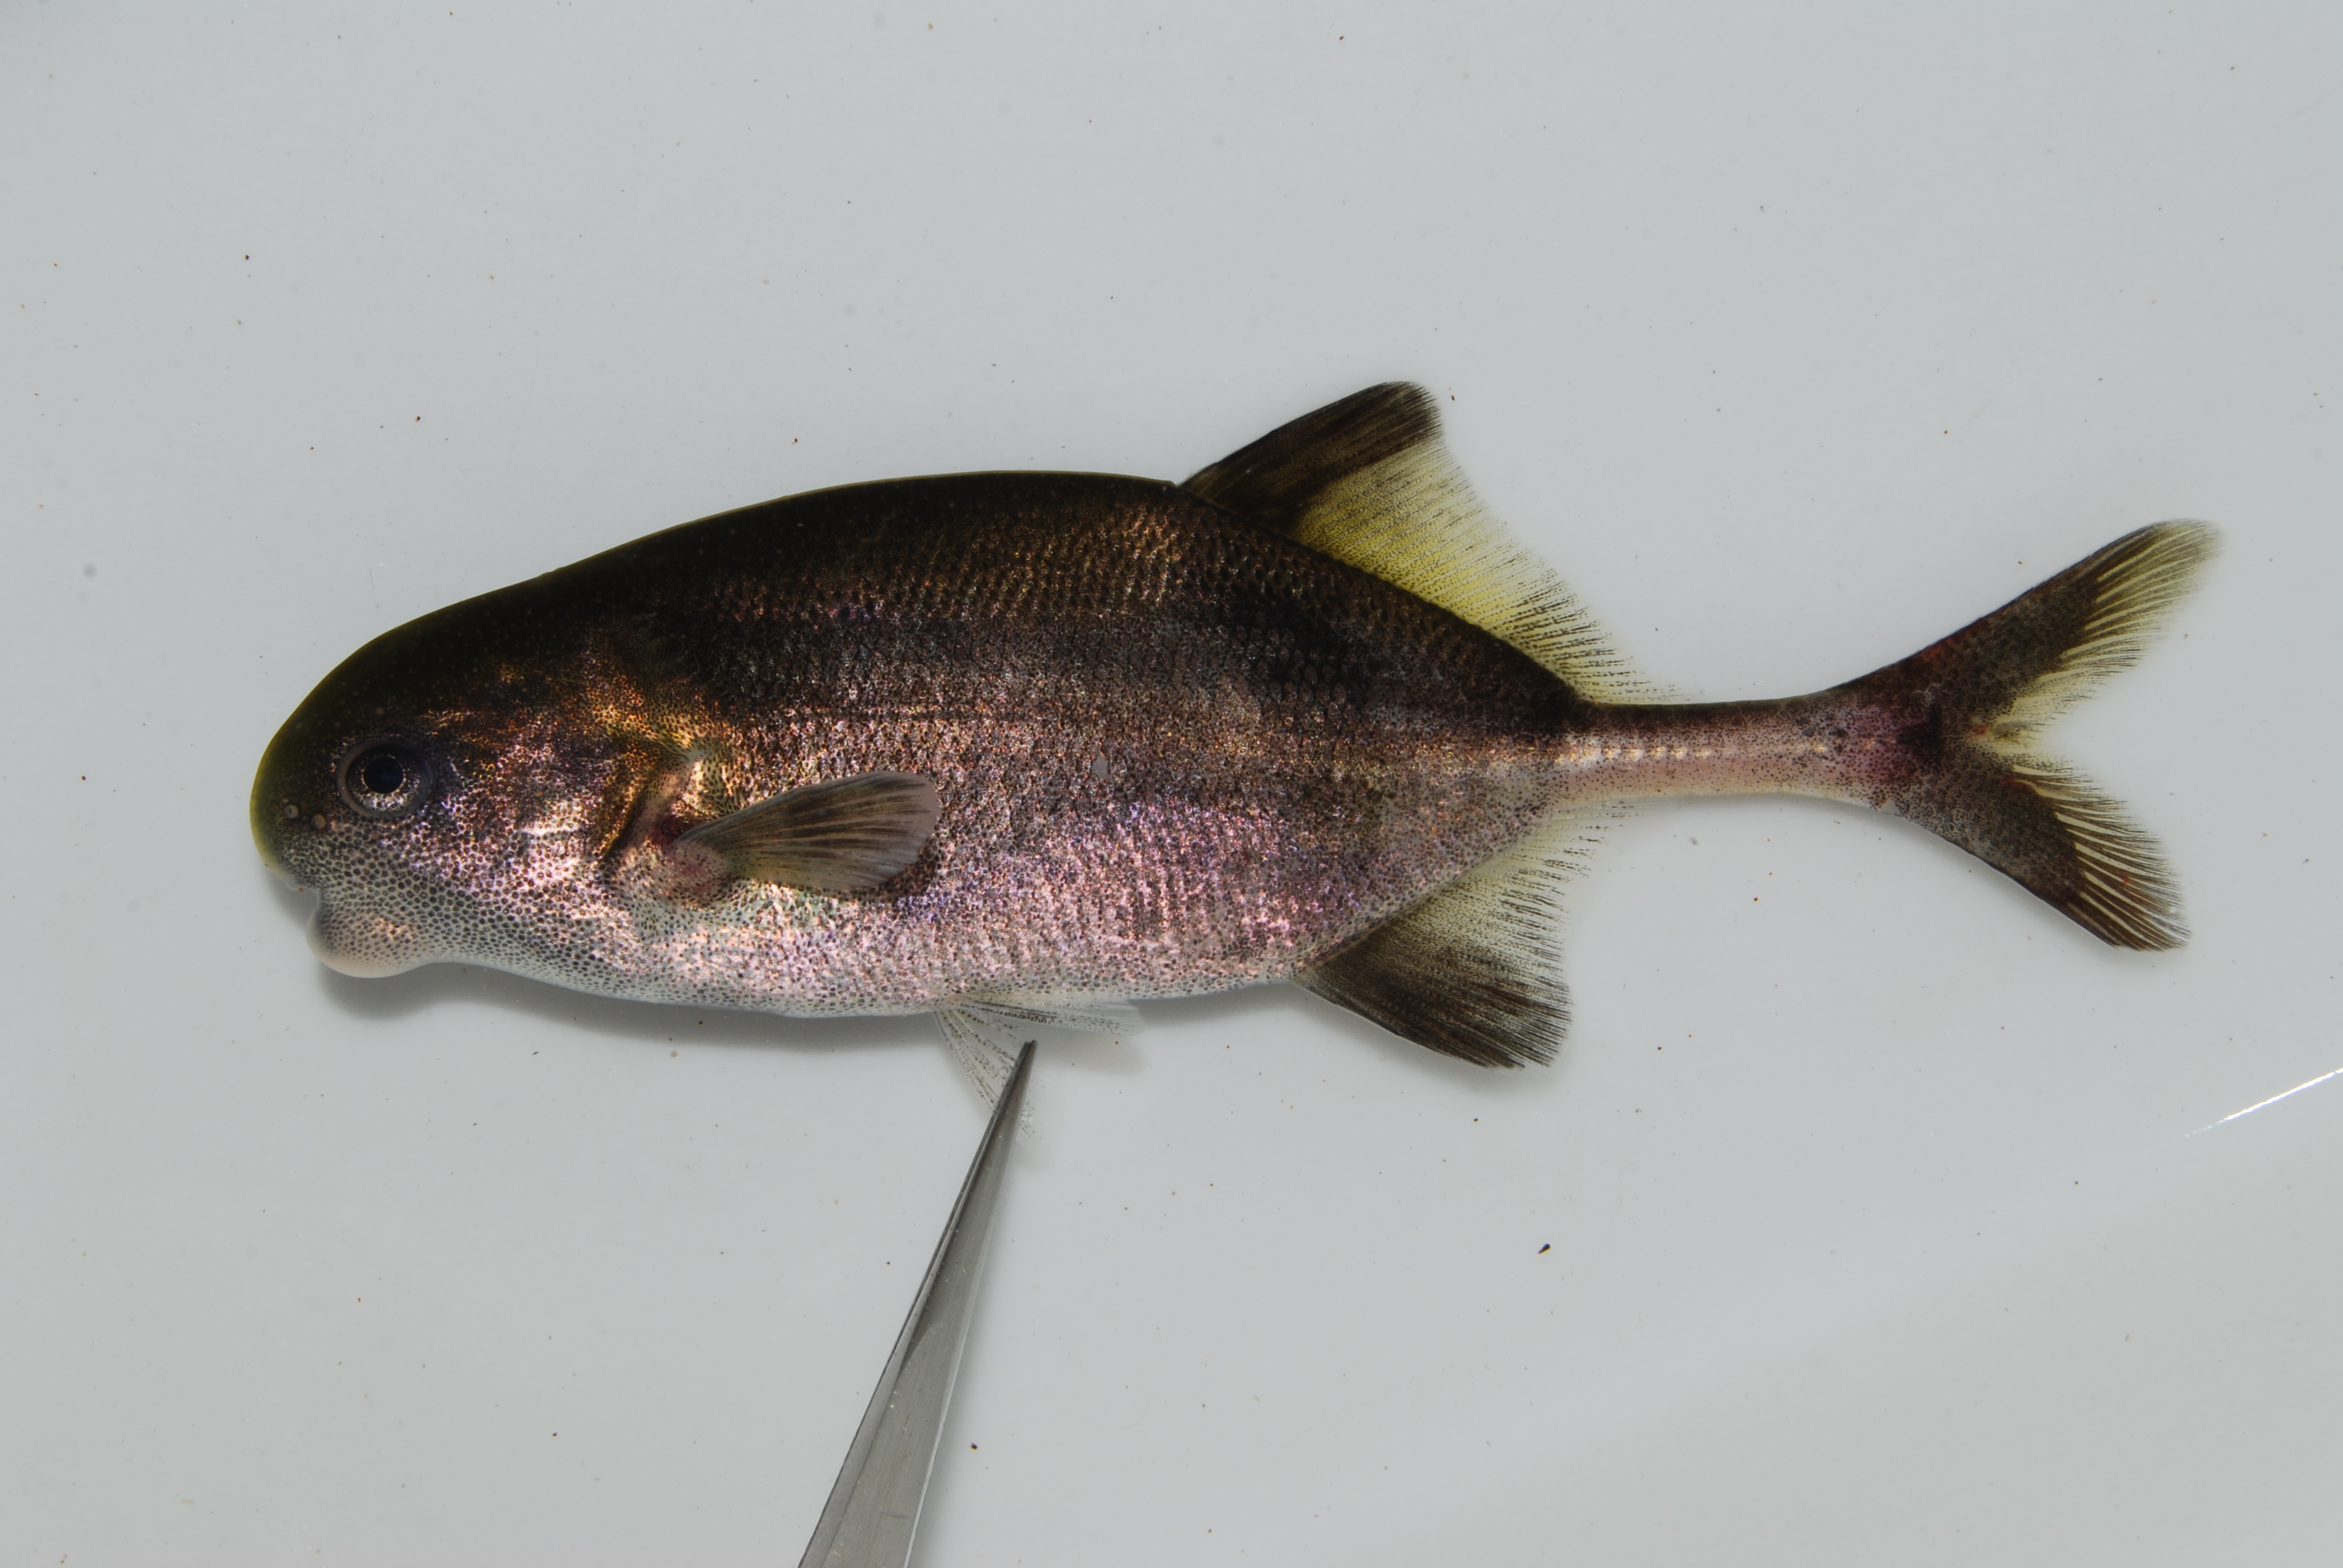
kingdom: Animalia
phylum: Chordata
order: Osteoglossiformes
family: Mormyridae
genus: Hippopotamyrus
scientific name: Hippopotamyrus
